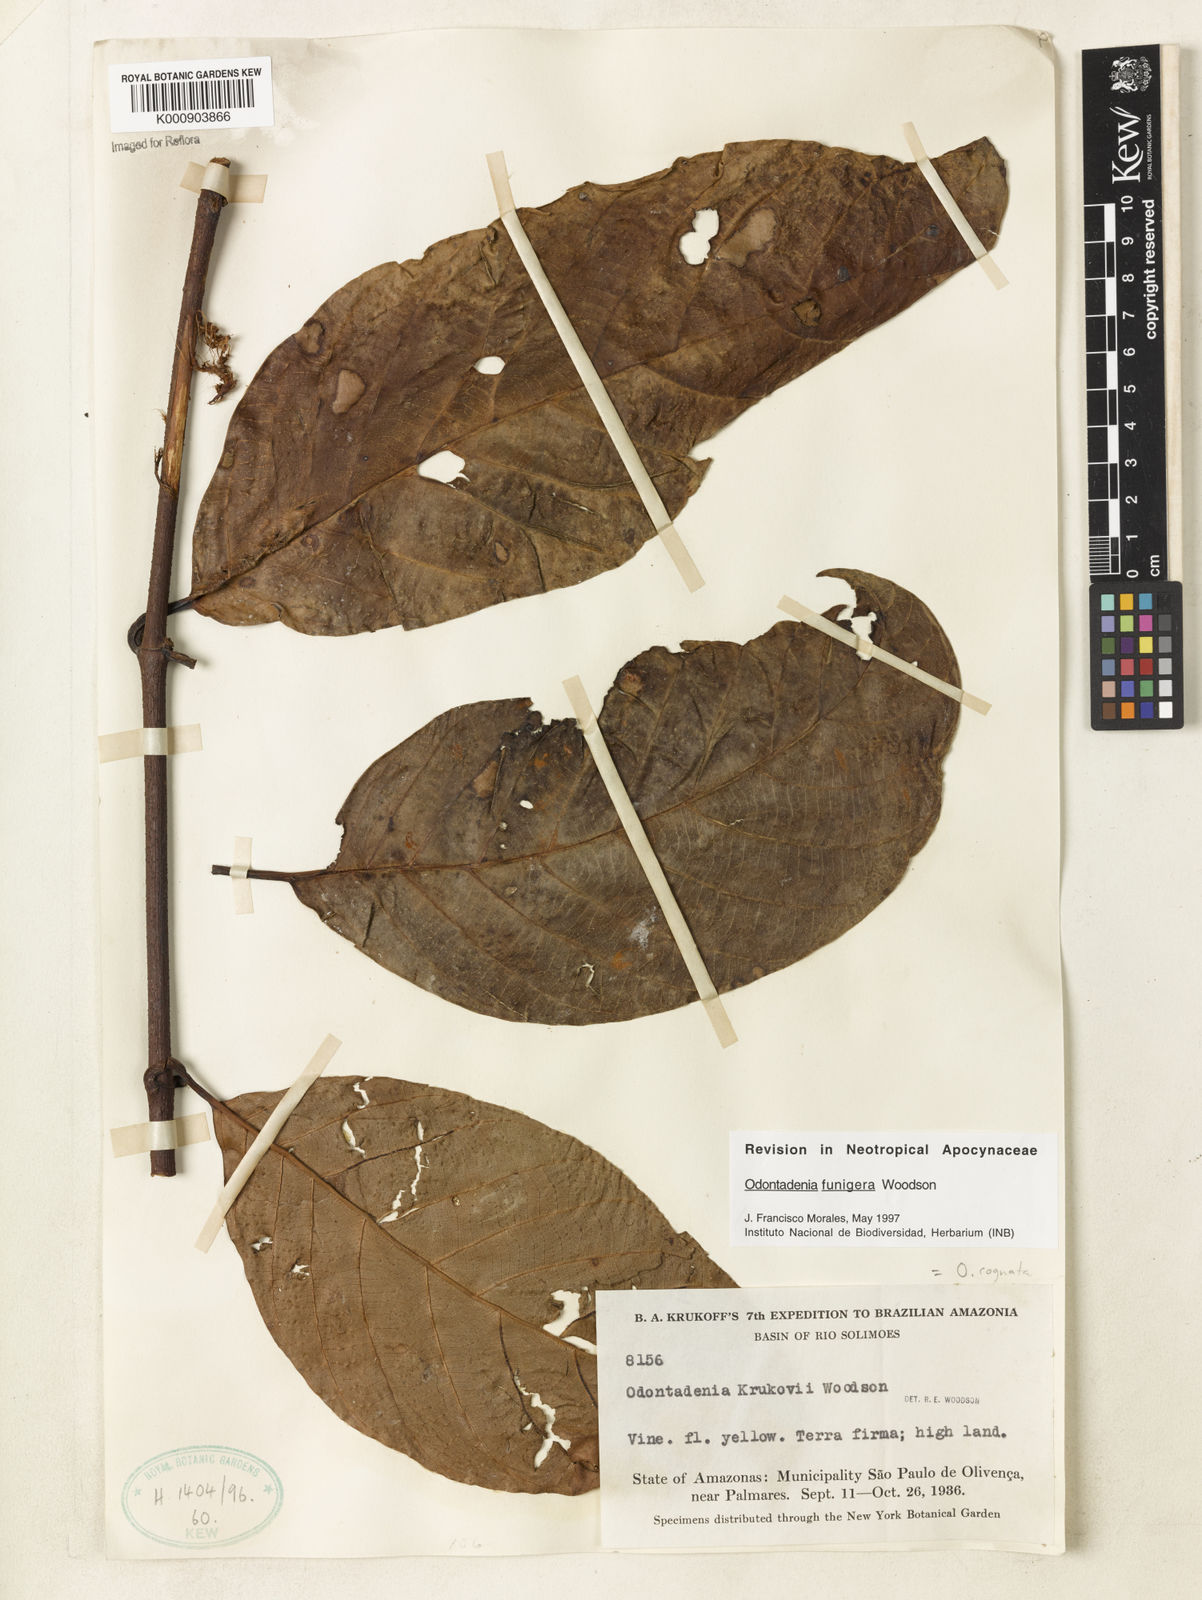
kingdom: Plantae
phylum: Tracheophyta
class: Magnoliopsida
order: Gentianales
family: Apocynaceae
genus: Odontadenia
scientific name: Odontadenia funigera
